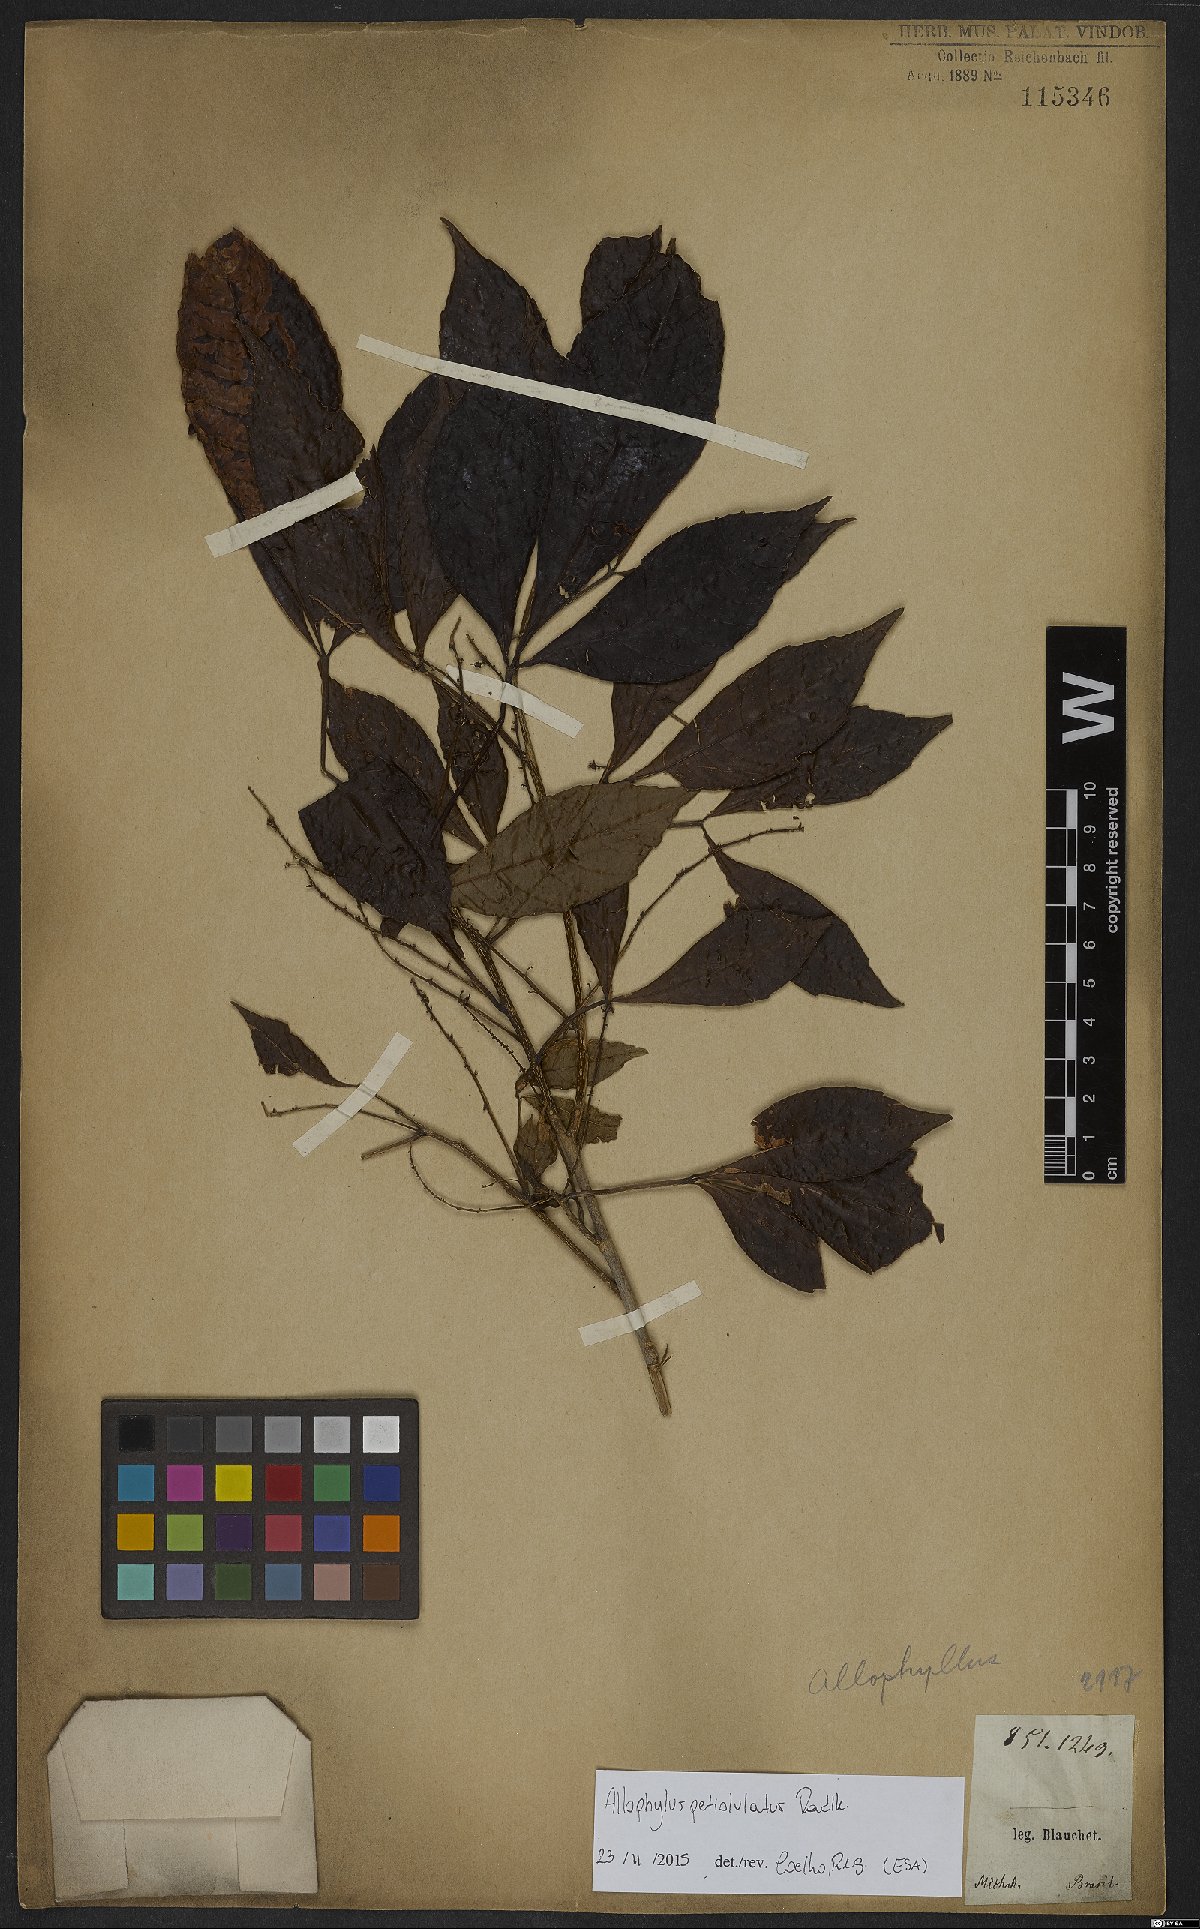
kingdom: Plantae
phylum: Tracheophyta
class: Magnoliopsida
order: Sapindales
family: Sapindaceae
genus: Allophylus
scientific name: Allophylus petiolulatus
